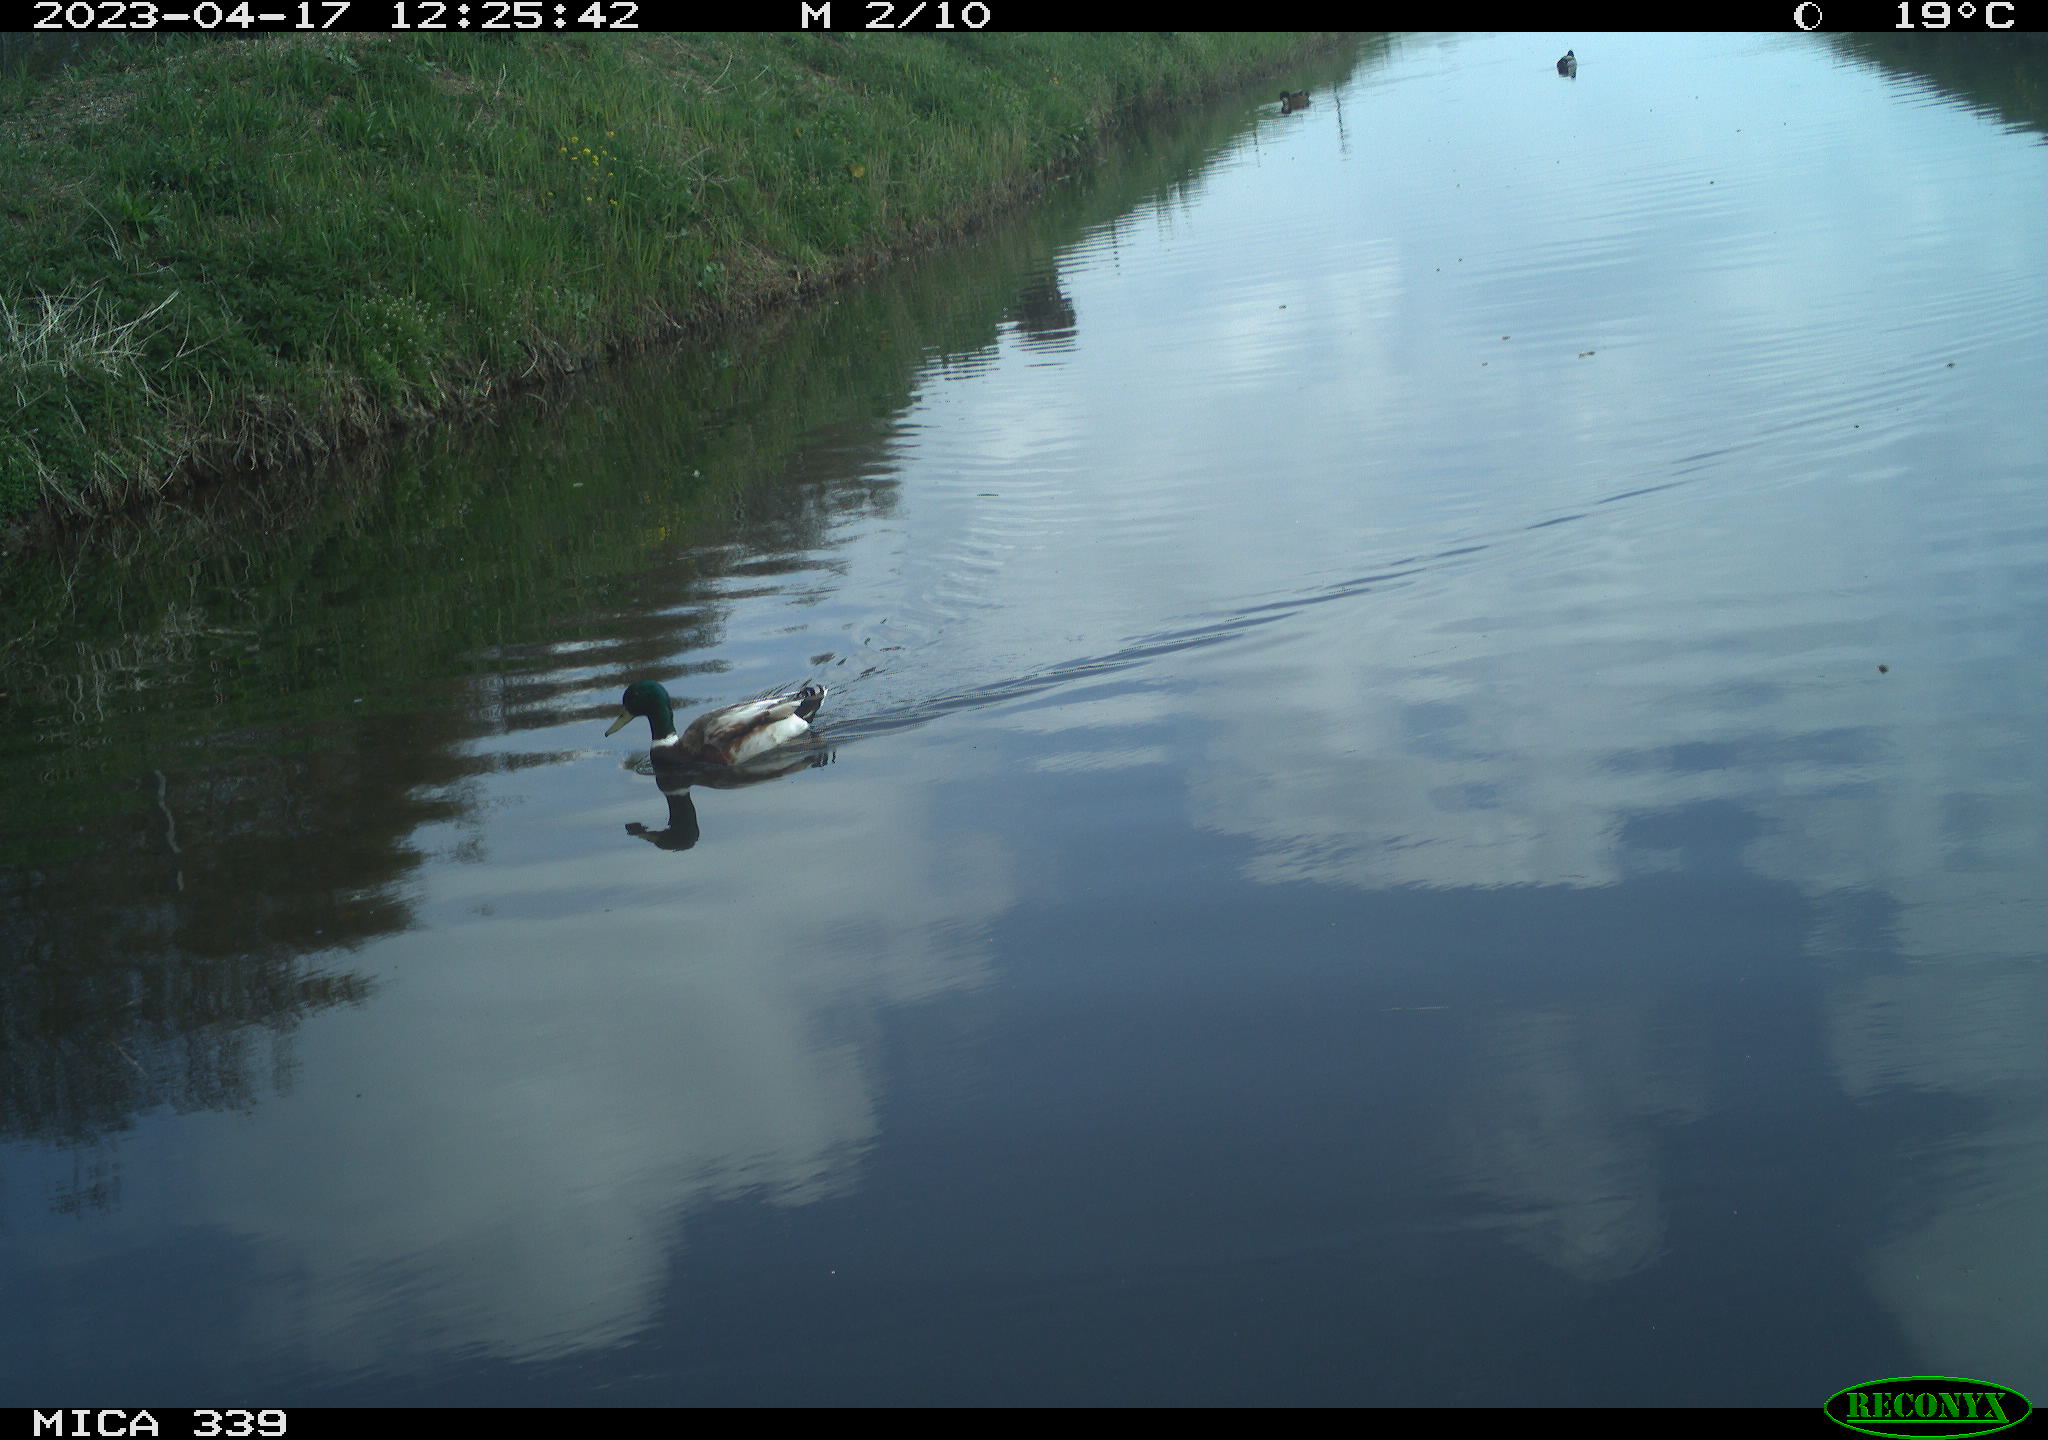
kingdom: Animalia
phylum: Chordata
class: Aves
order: Anseriformes
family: Anatidae
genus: Anas
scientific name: Anas platyrhynchos
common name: Mallard
